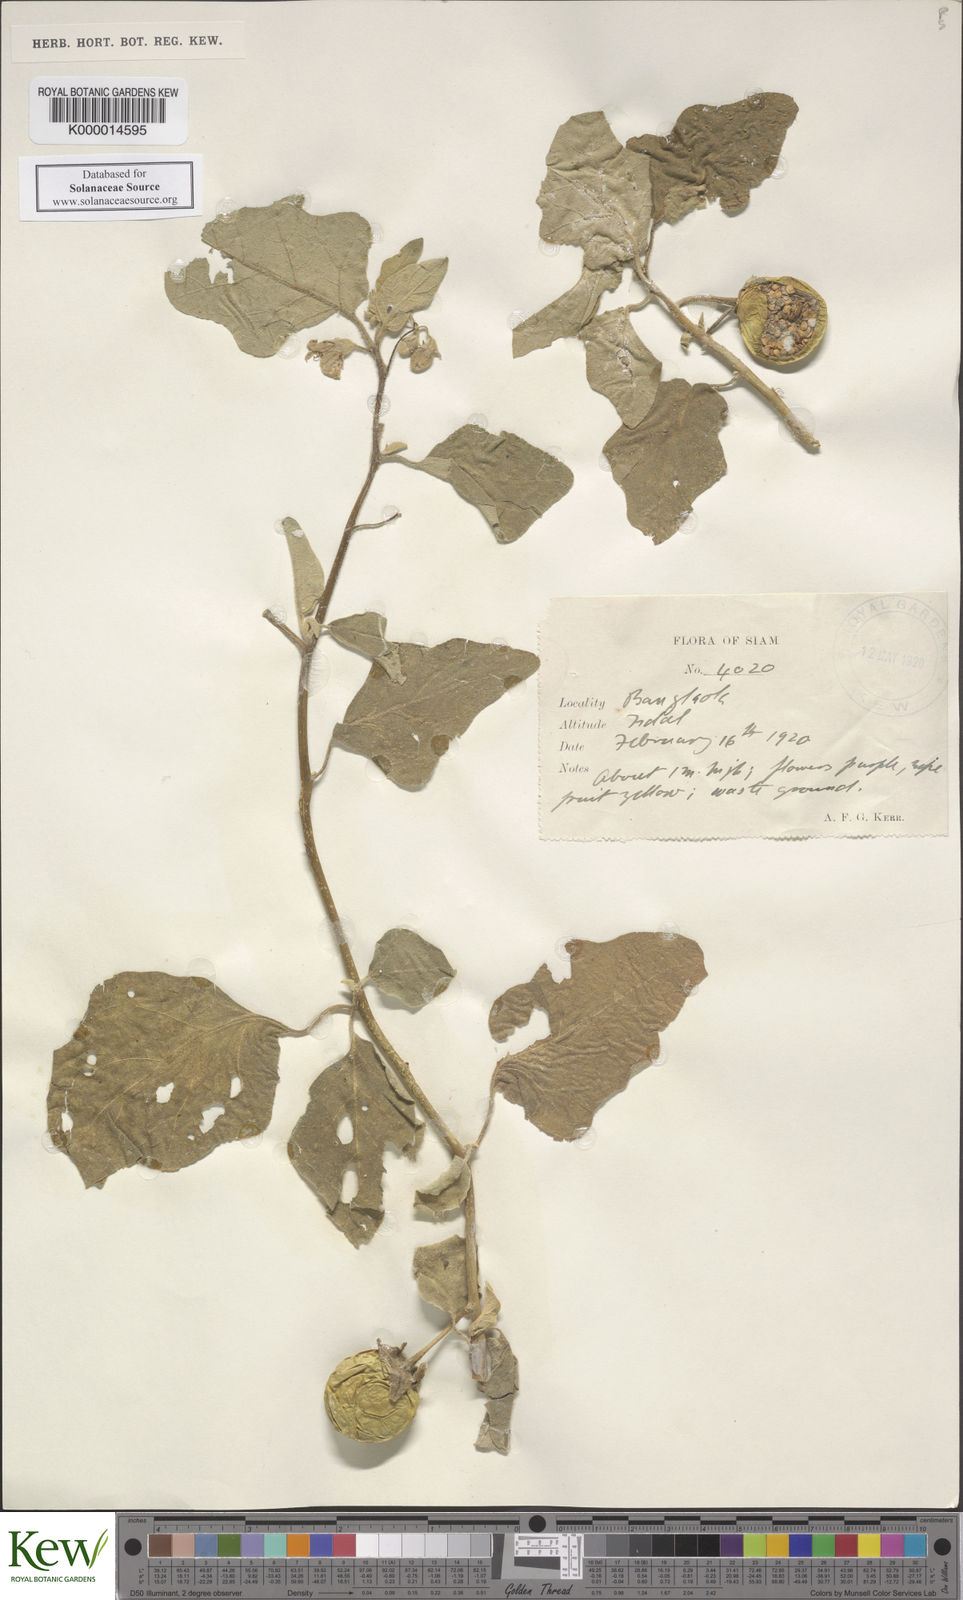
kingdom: Plantae
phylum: Tracheophyta
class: Magnoliopsida
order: Solanales
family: Solanaceae
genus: Solanum
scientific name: Solanum melongena
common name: Eggplant
